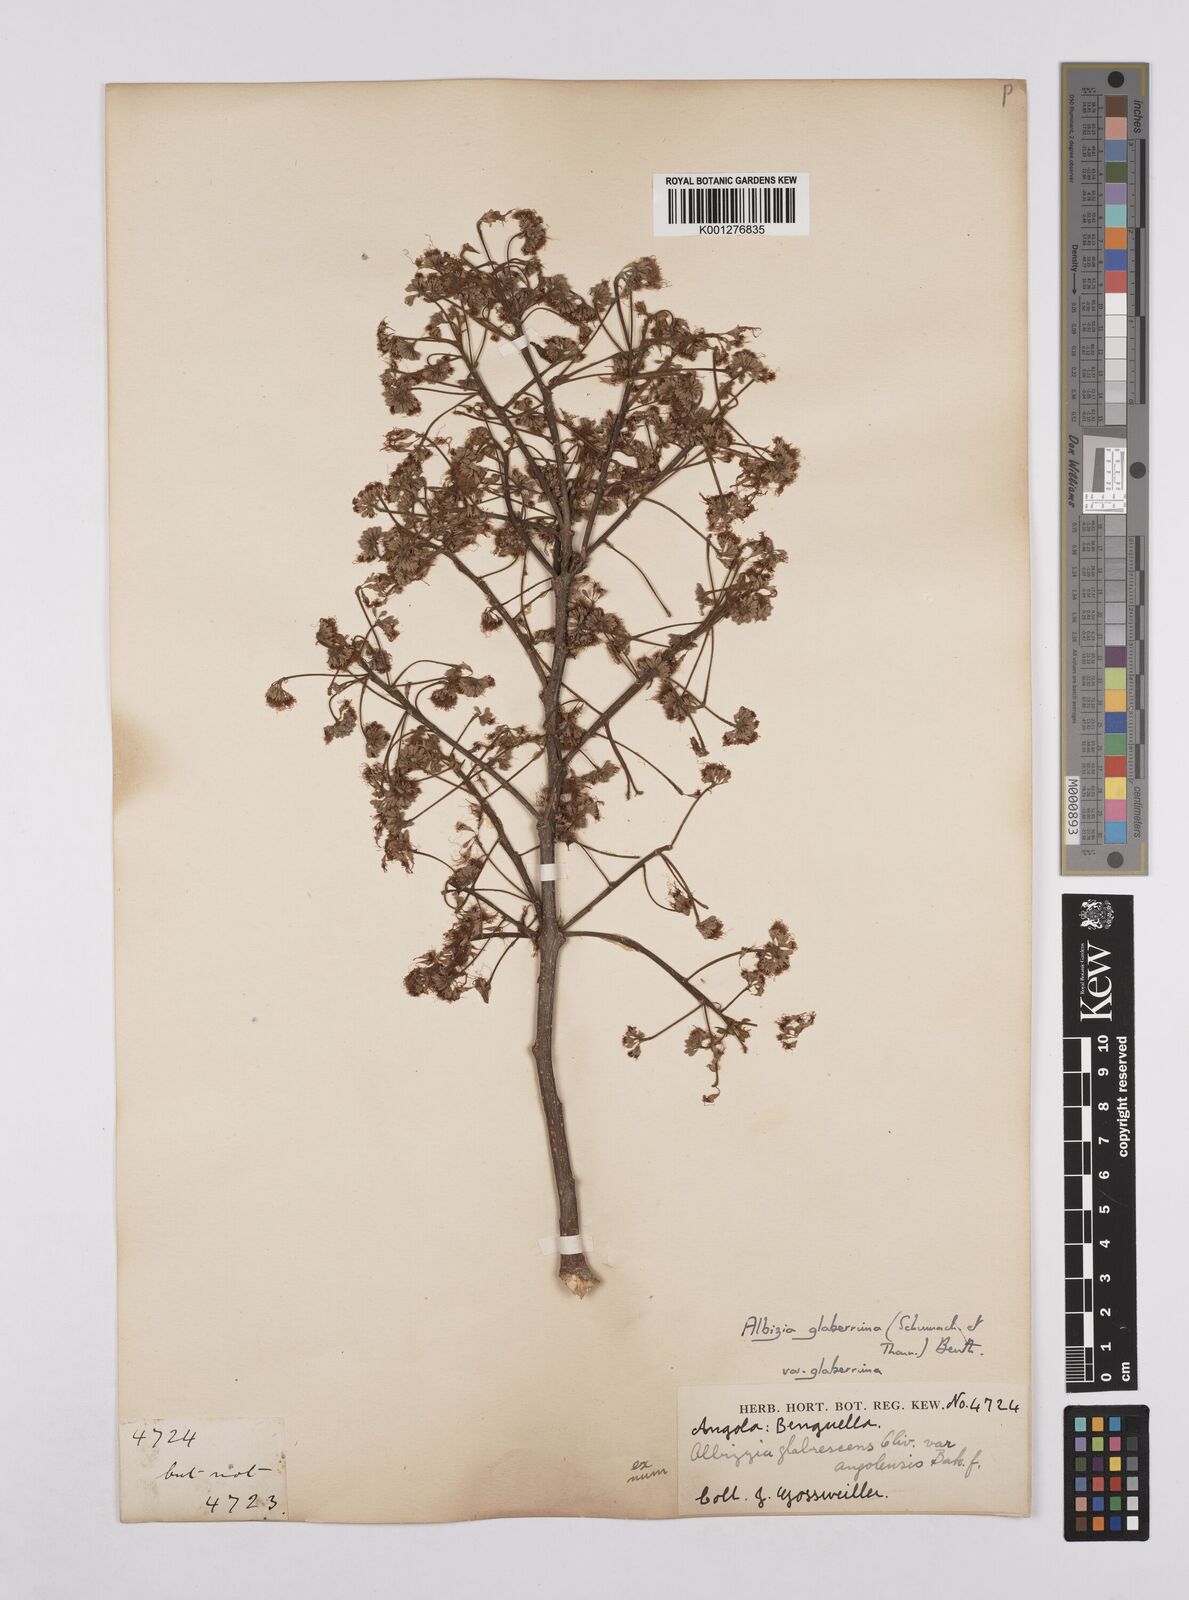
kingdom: Plantae
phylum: Tracheophyta
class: Magnoliopsida
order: Fabales
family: Fabaceae
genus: Albizia
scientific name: Albizia glaberrima
